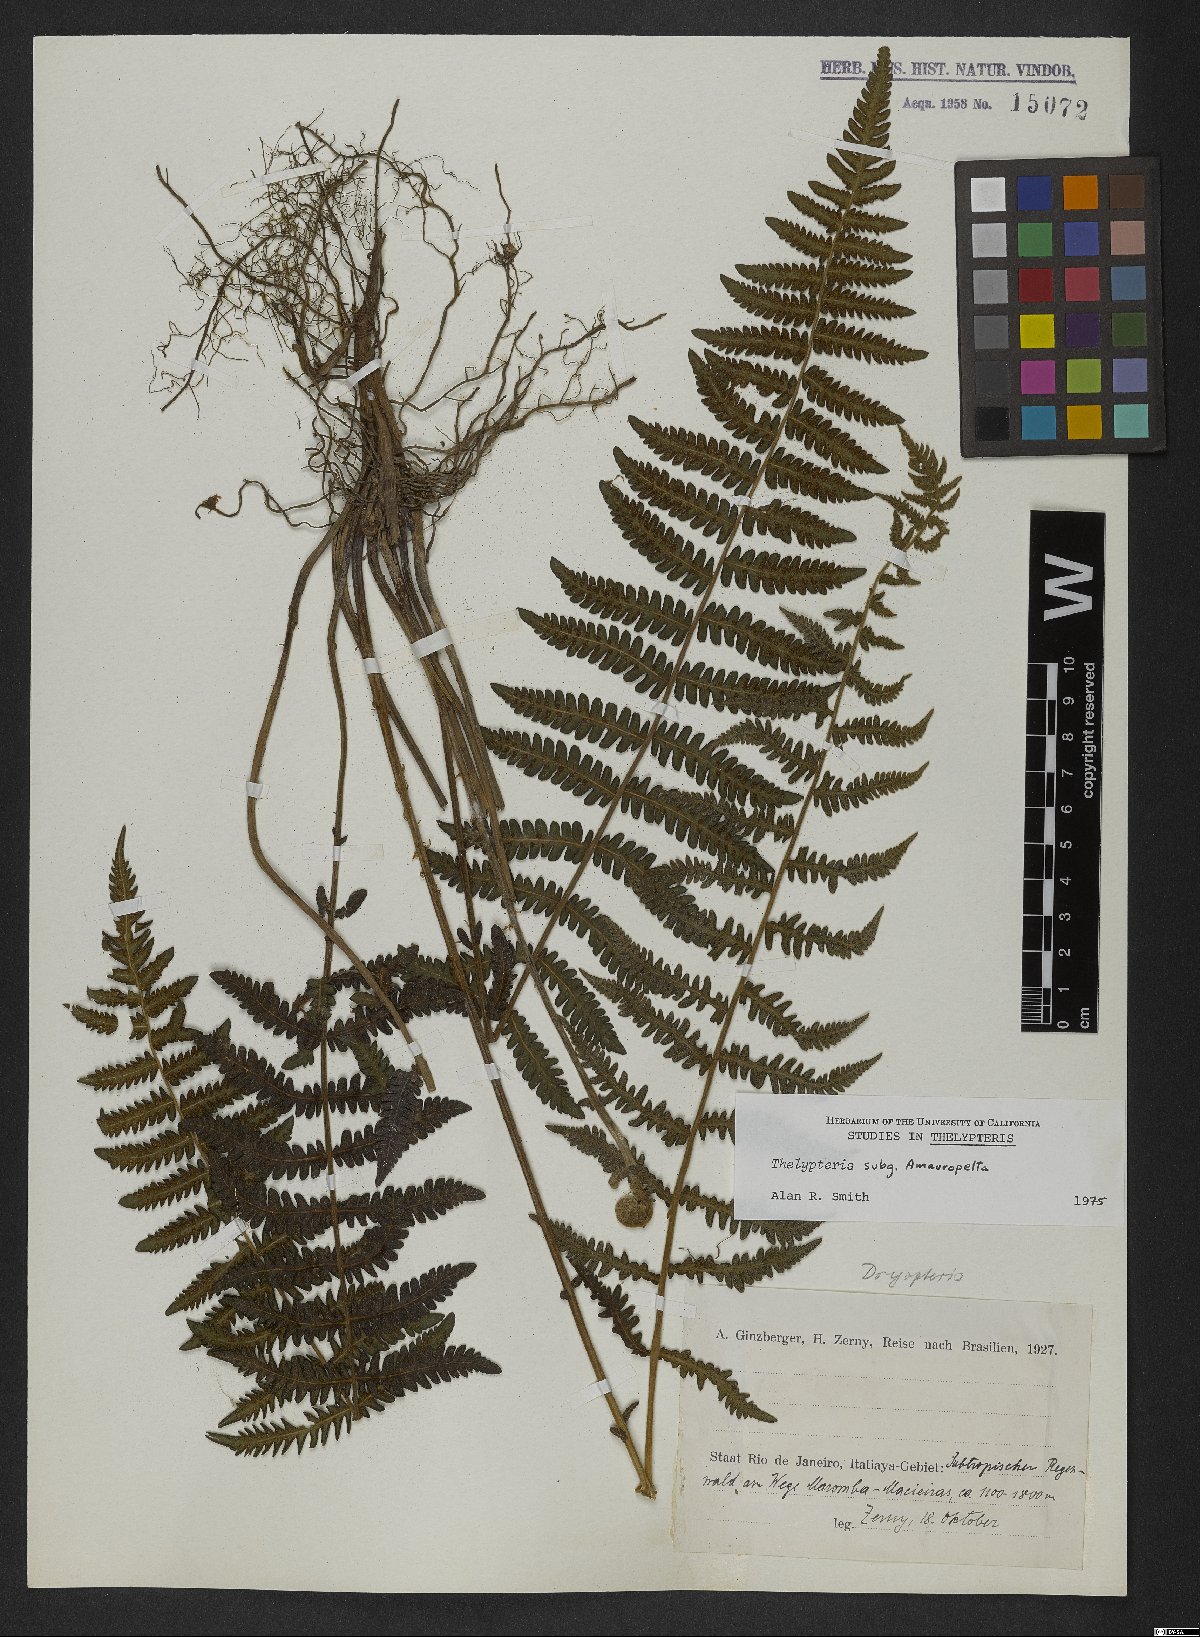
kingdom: Plantae
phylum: Tracheophyta
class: Polypodiopsida
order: Polypodiales
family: Thelypteridaceae
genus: Thelypteris
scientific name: Thelypteris
